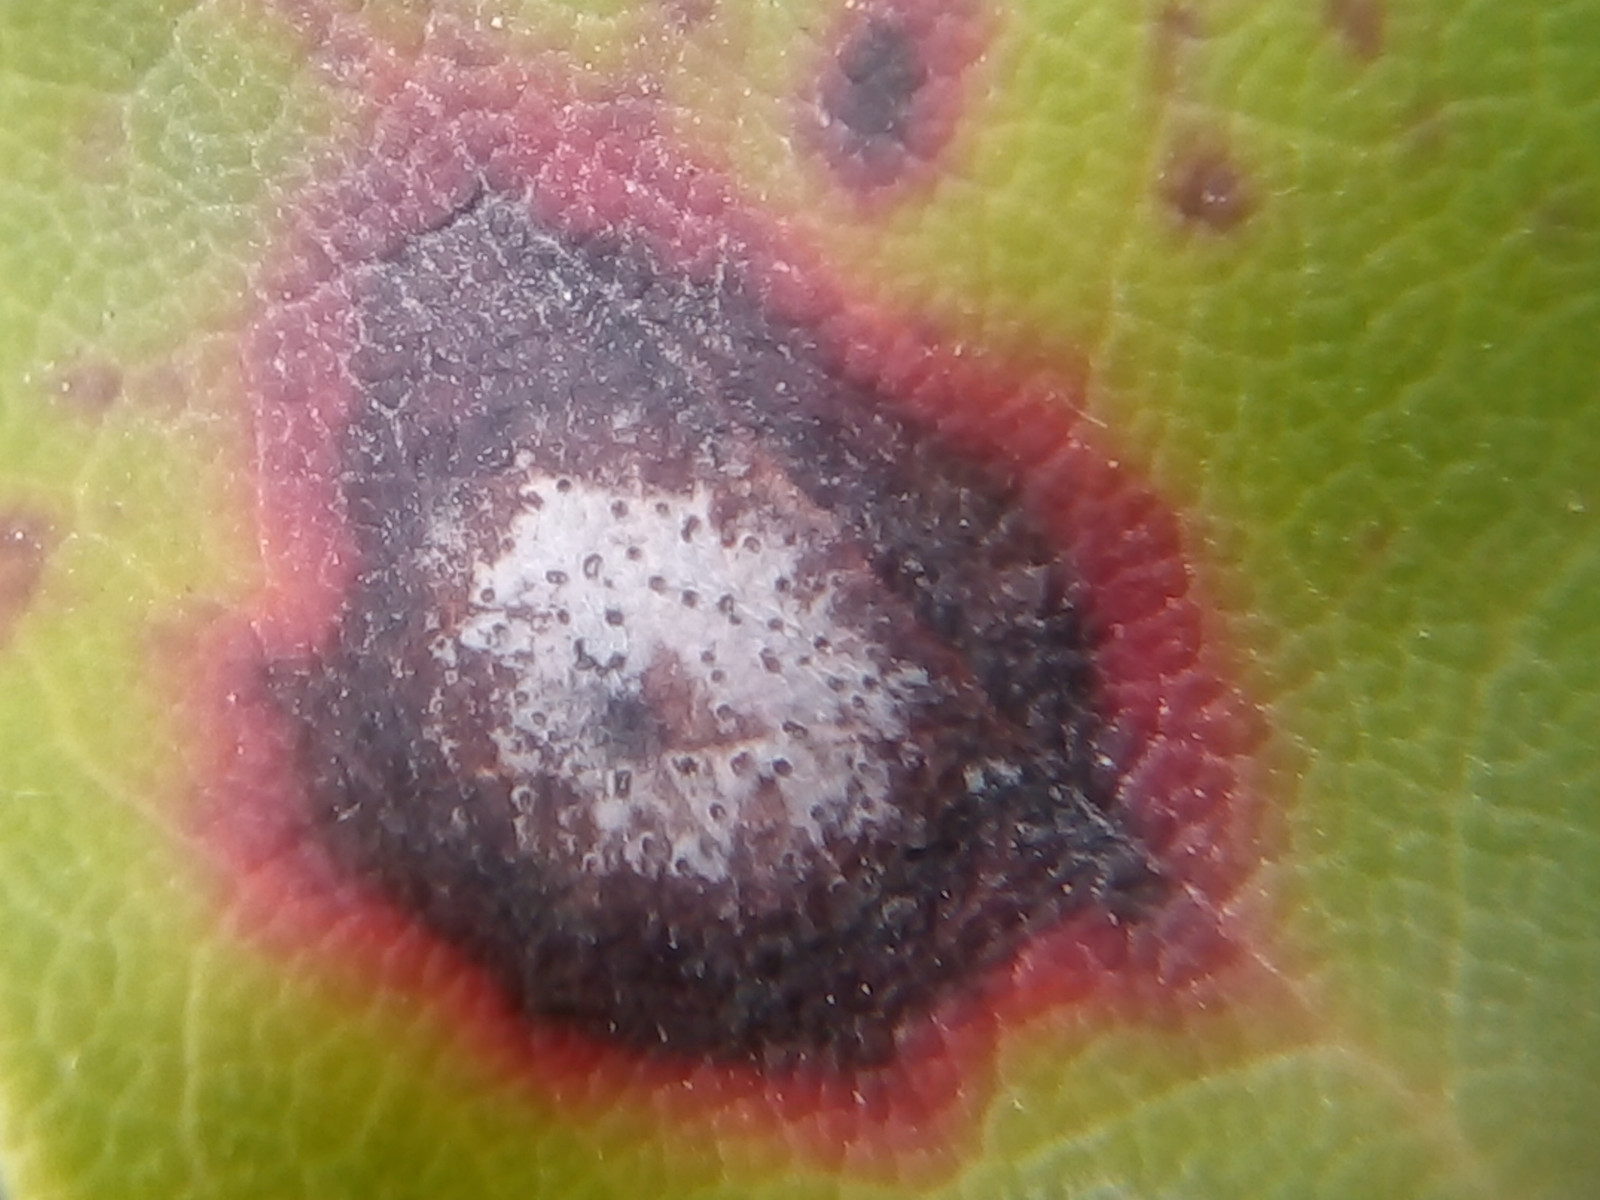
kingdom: Fungi
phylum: Ascomycota
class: Sordariomycetes
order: Glomerellales
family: Glomerellaceae
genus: Colletotrichum
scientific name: Colletotrichum gloeosporioides
